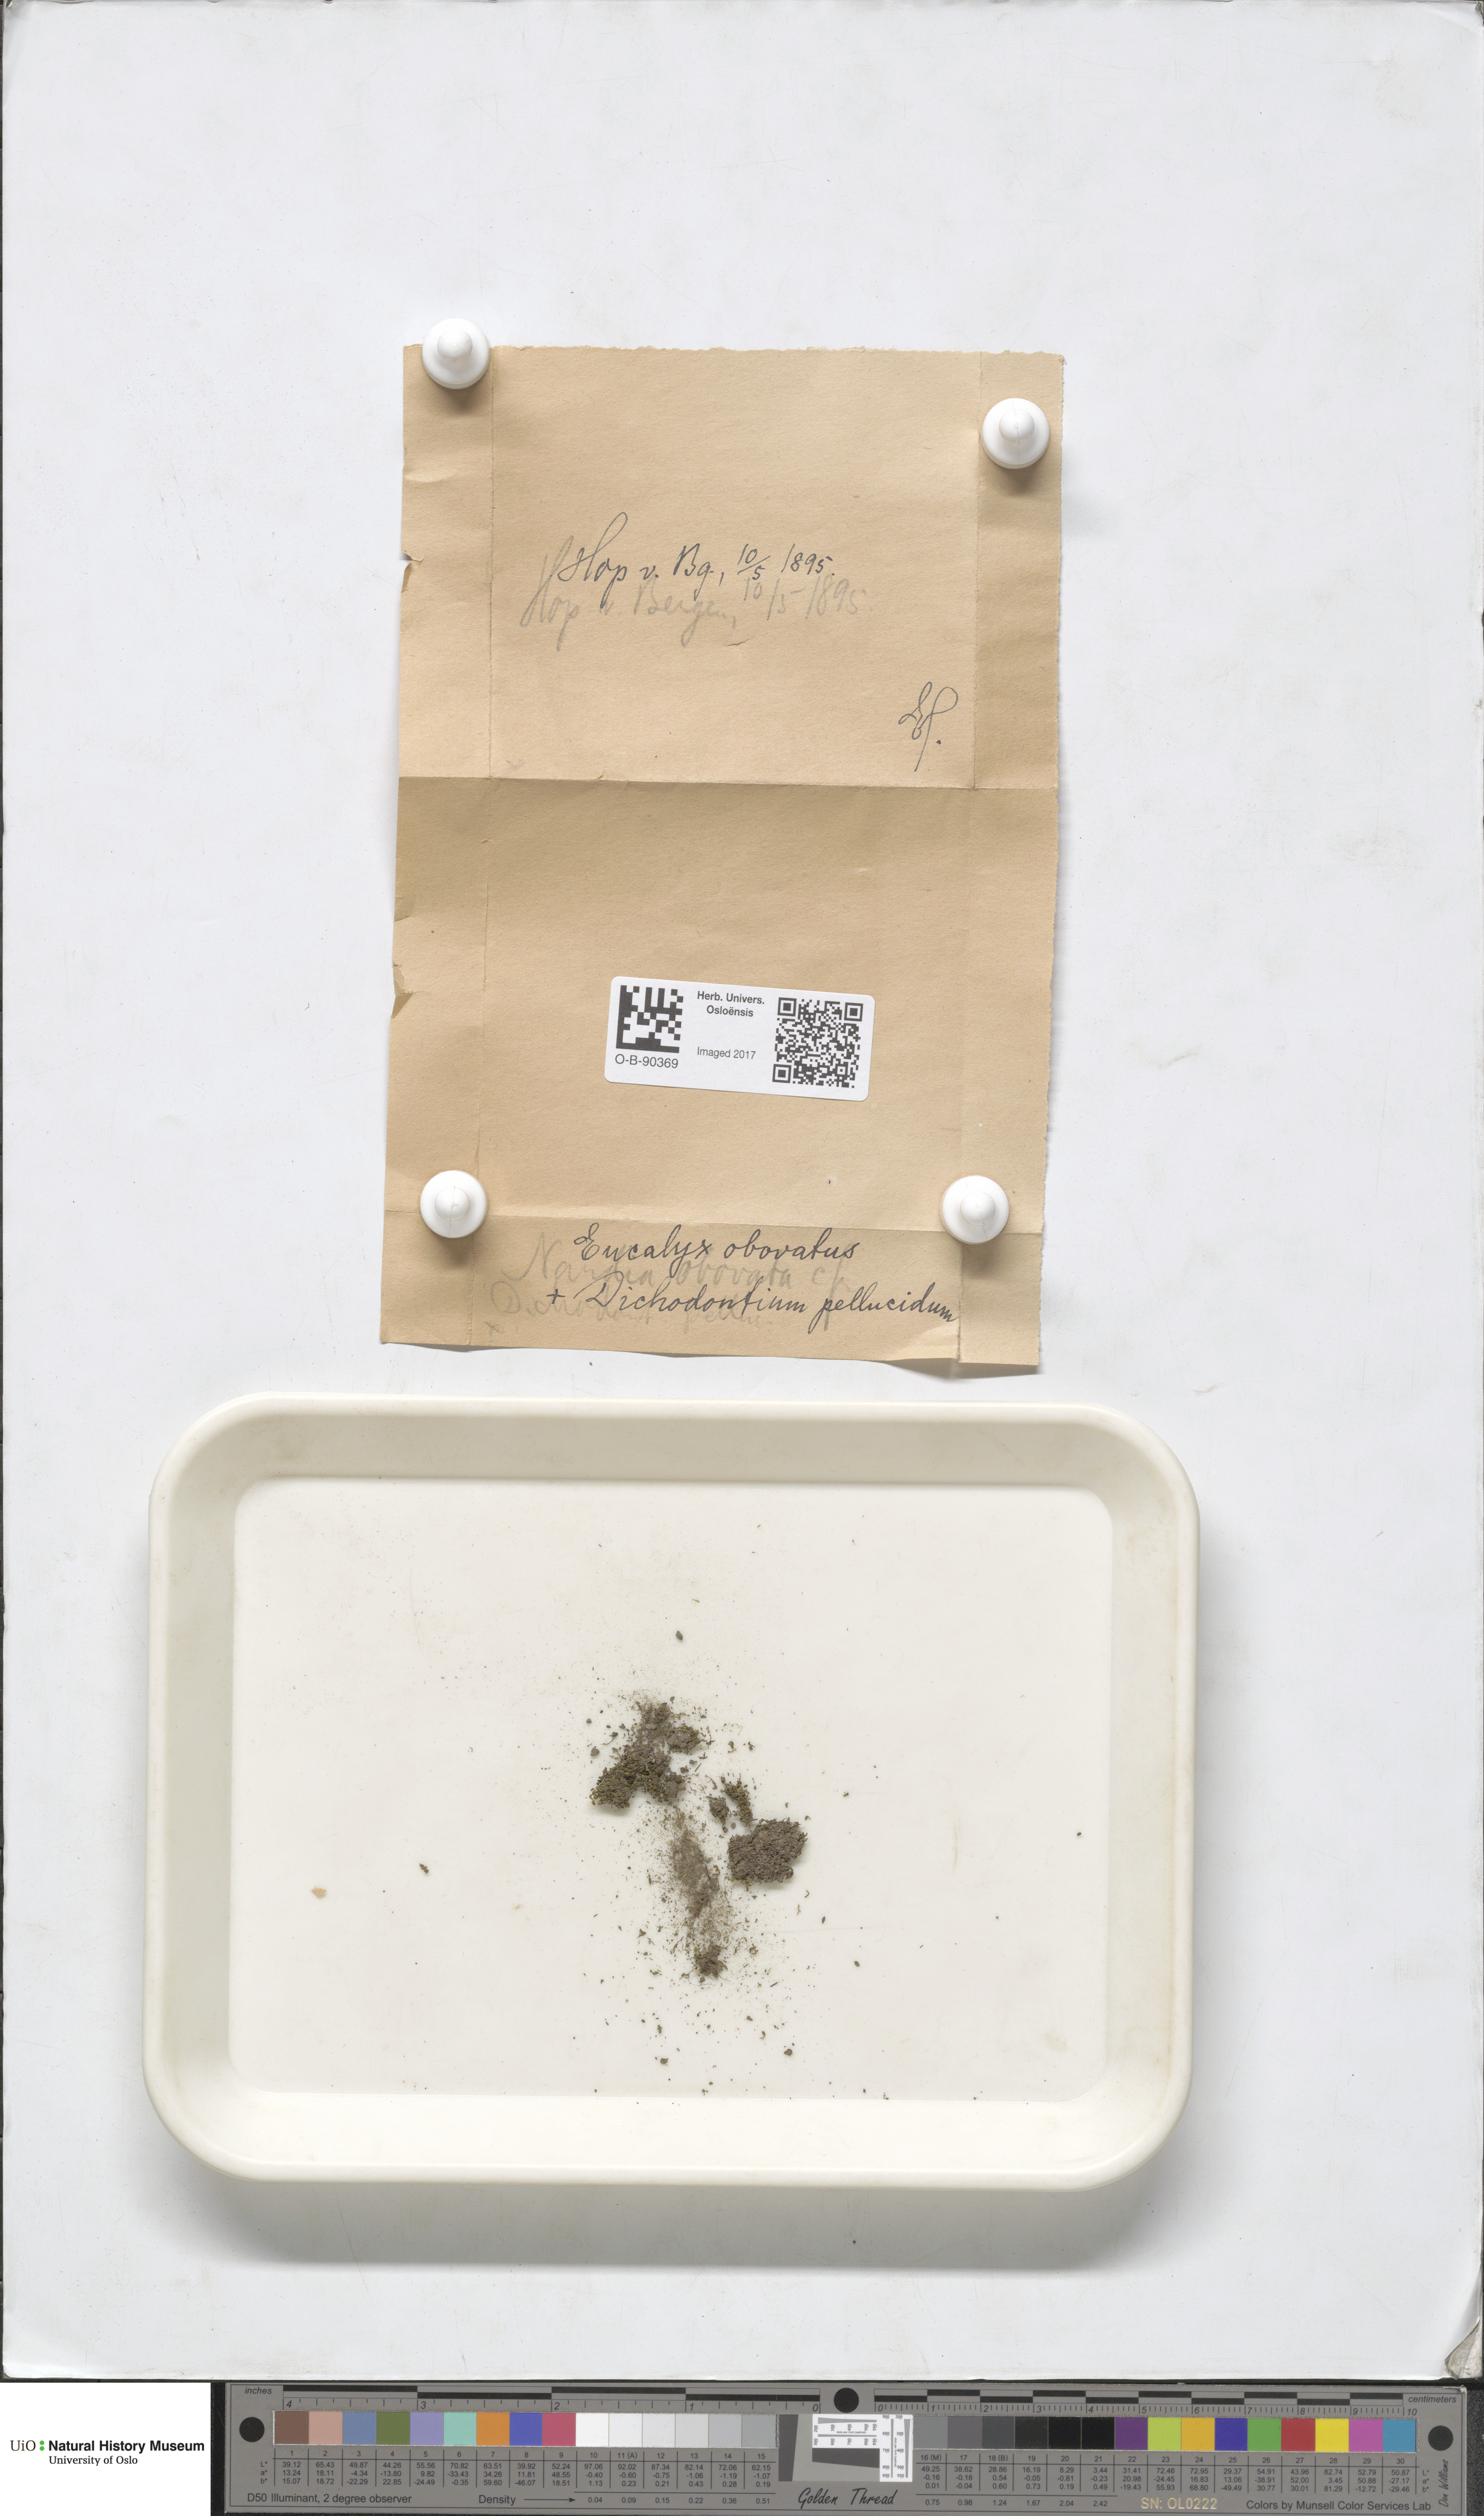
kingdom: Plantae
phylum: Marchantiophyta
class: Jungermanniopsida
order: Jungermanniales
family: Solenostomataceae
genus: Solenostoma
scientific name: Solenostoma obovatum
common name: Egg flapwort
